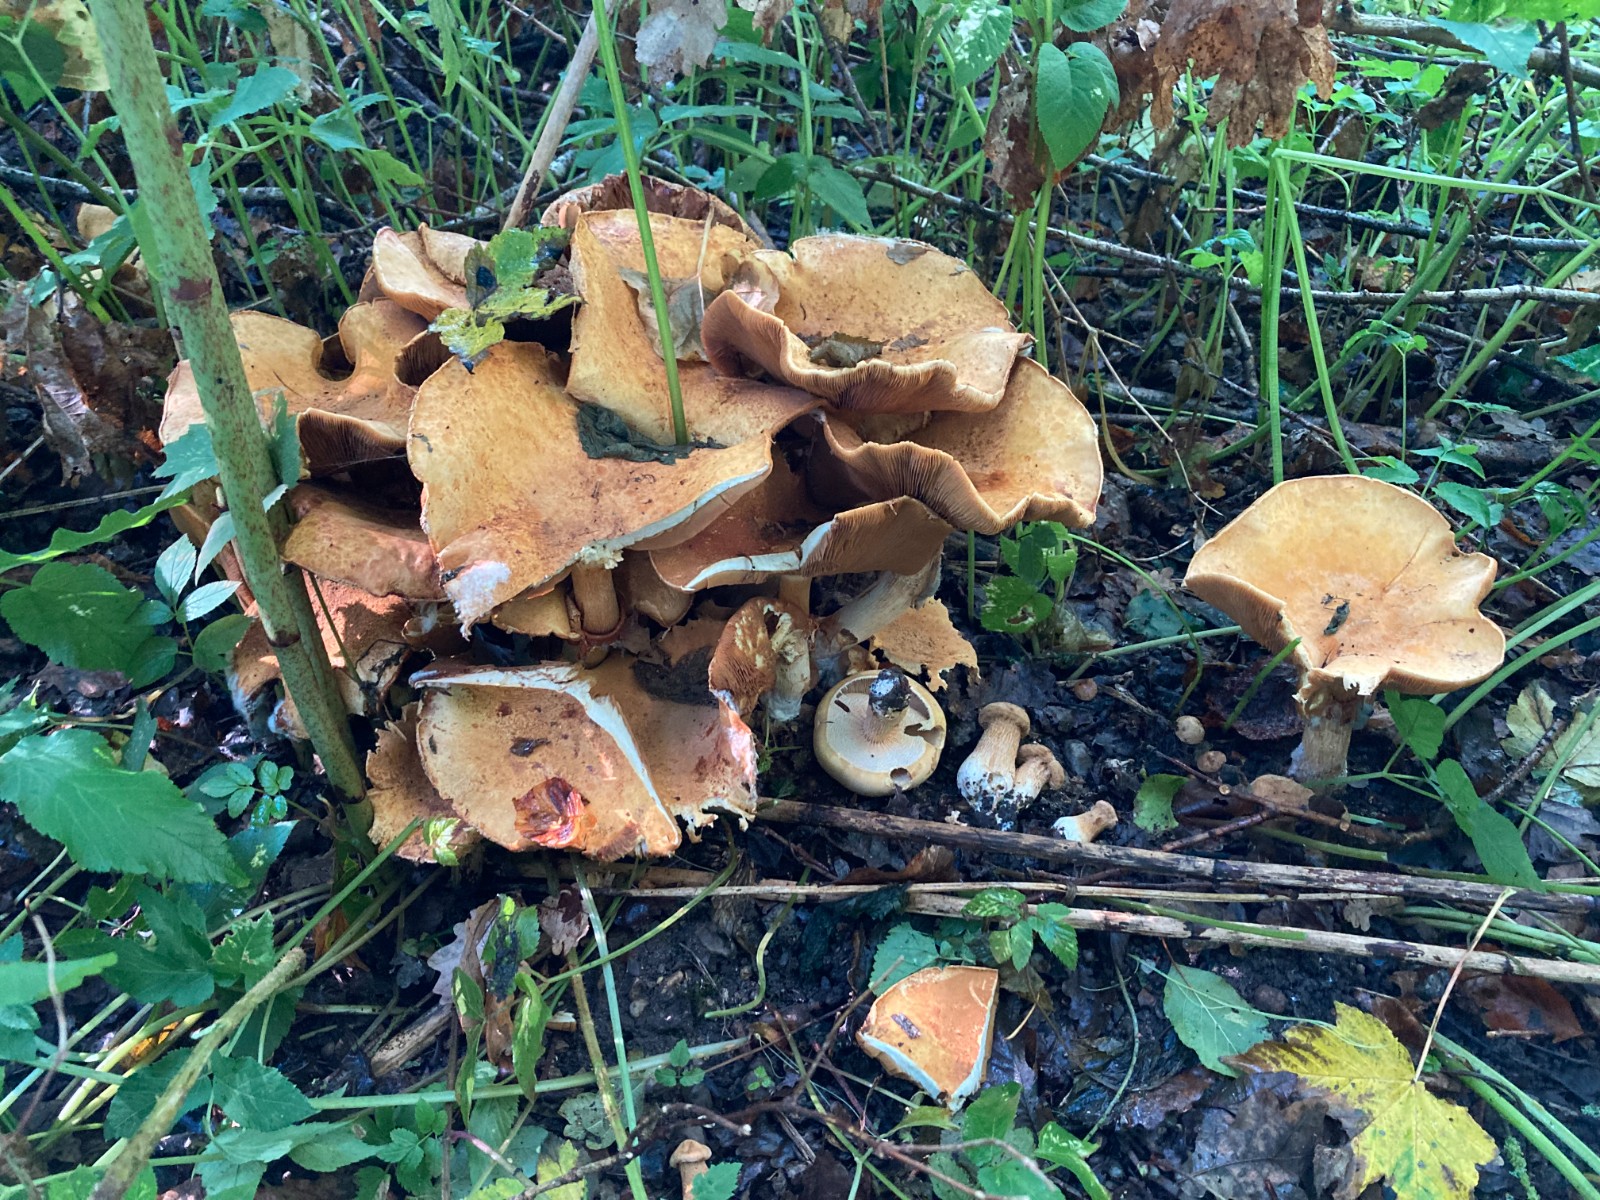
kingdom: Fungi
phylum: Basidiomycota
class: Agaricomycetes
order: Agaricales
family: Tricholomataceae
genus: Phaeolepiota
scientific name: Phaeolepiota aurea
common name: gyldenhat
